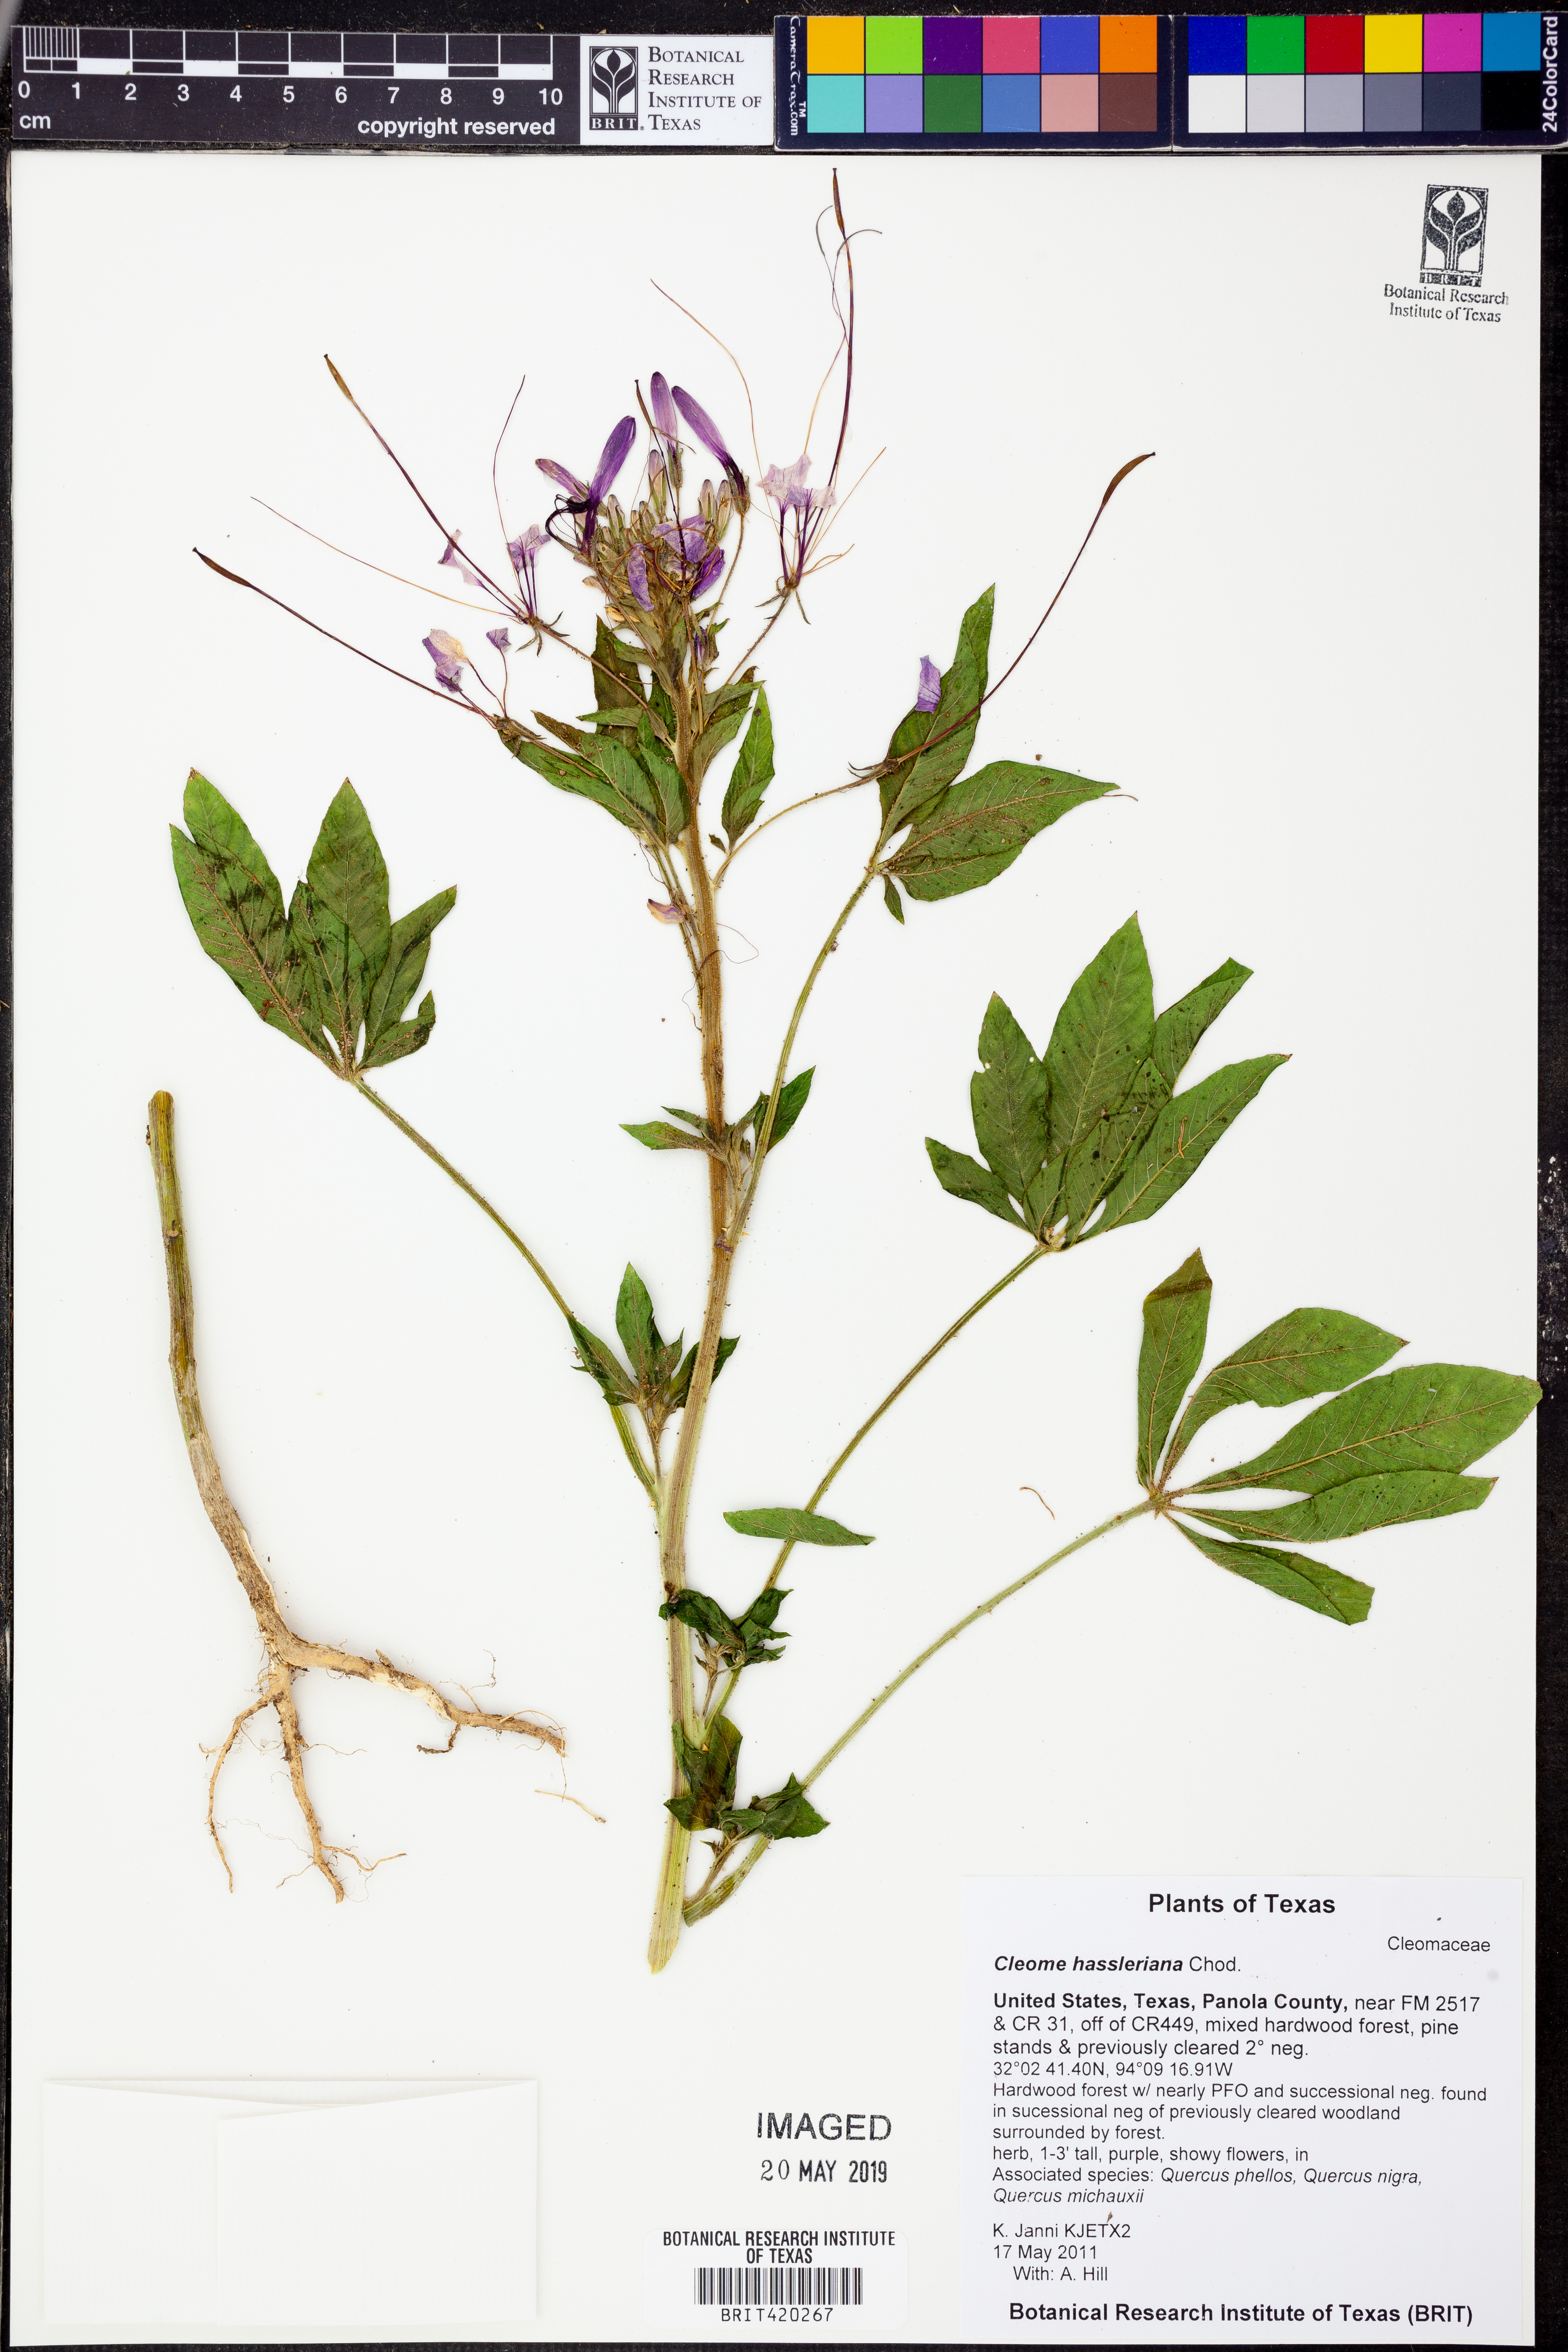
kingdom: Plantae
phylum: Tracheophyta
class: Magnoliopsida
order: Brassicales
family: Cleomaceae
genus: Tarenaya
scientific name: Tarenaya houtteana
